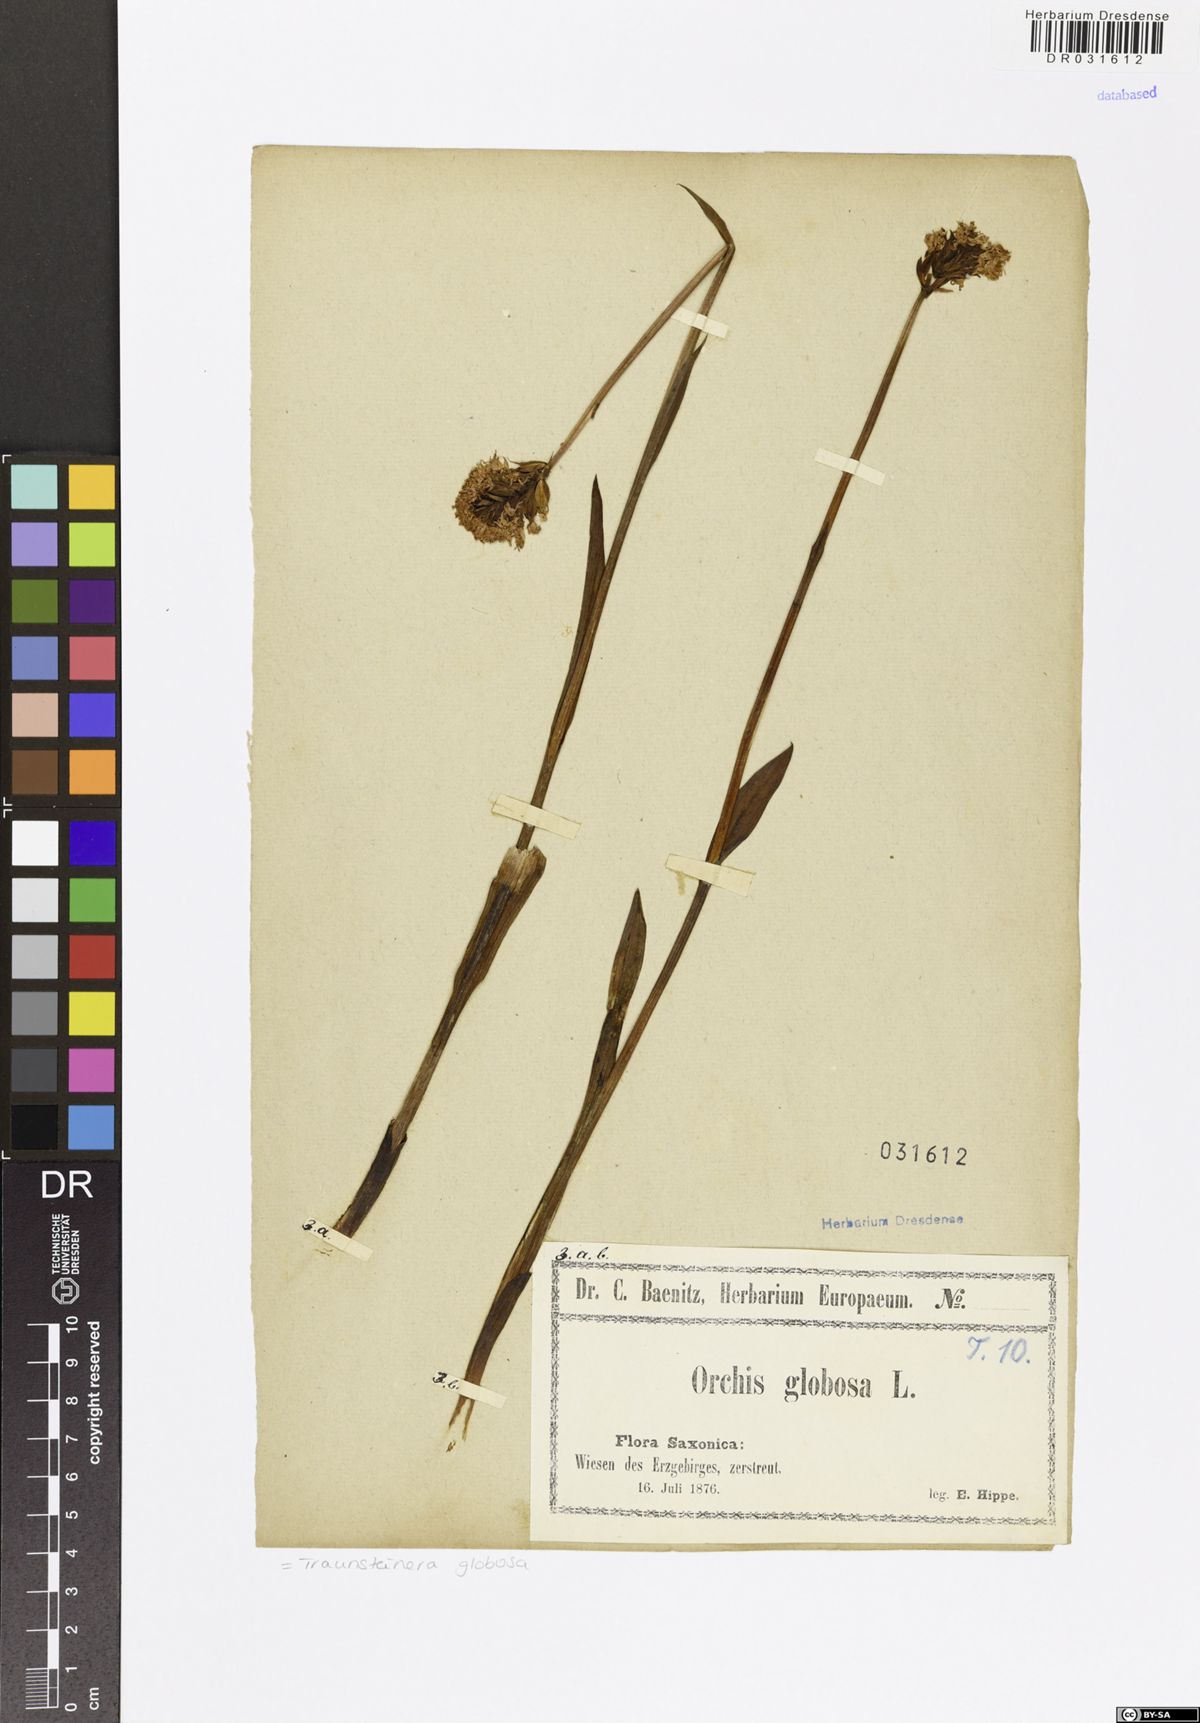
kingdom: Plantae
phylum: Tracheophyta
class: Liliopsida
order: Asparagales
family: Orchidaceae
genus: Traunsteinera
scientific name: Traunsteinera globosa
